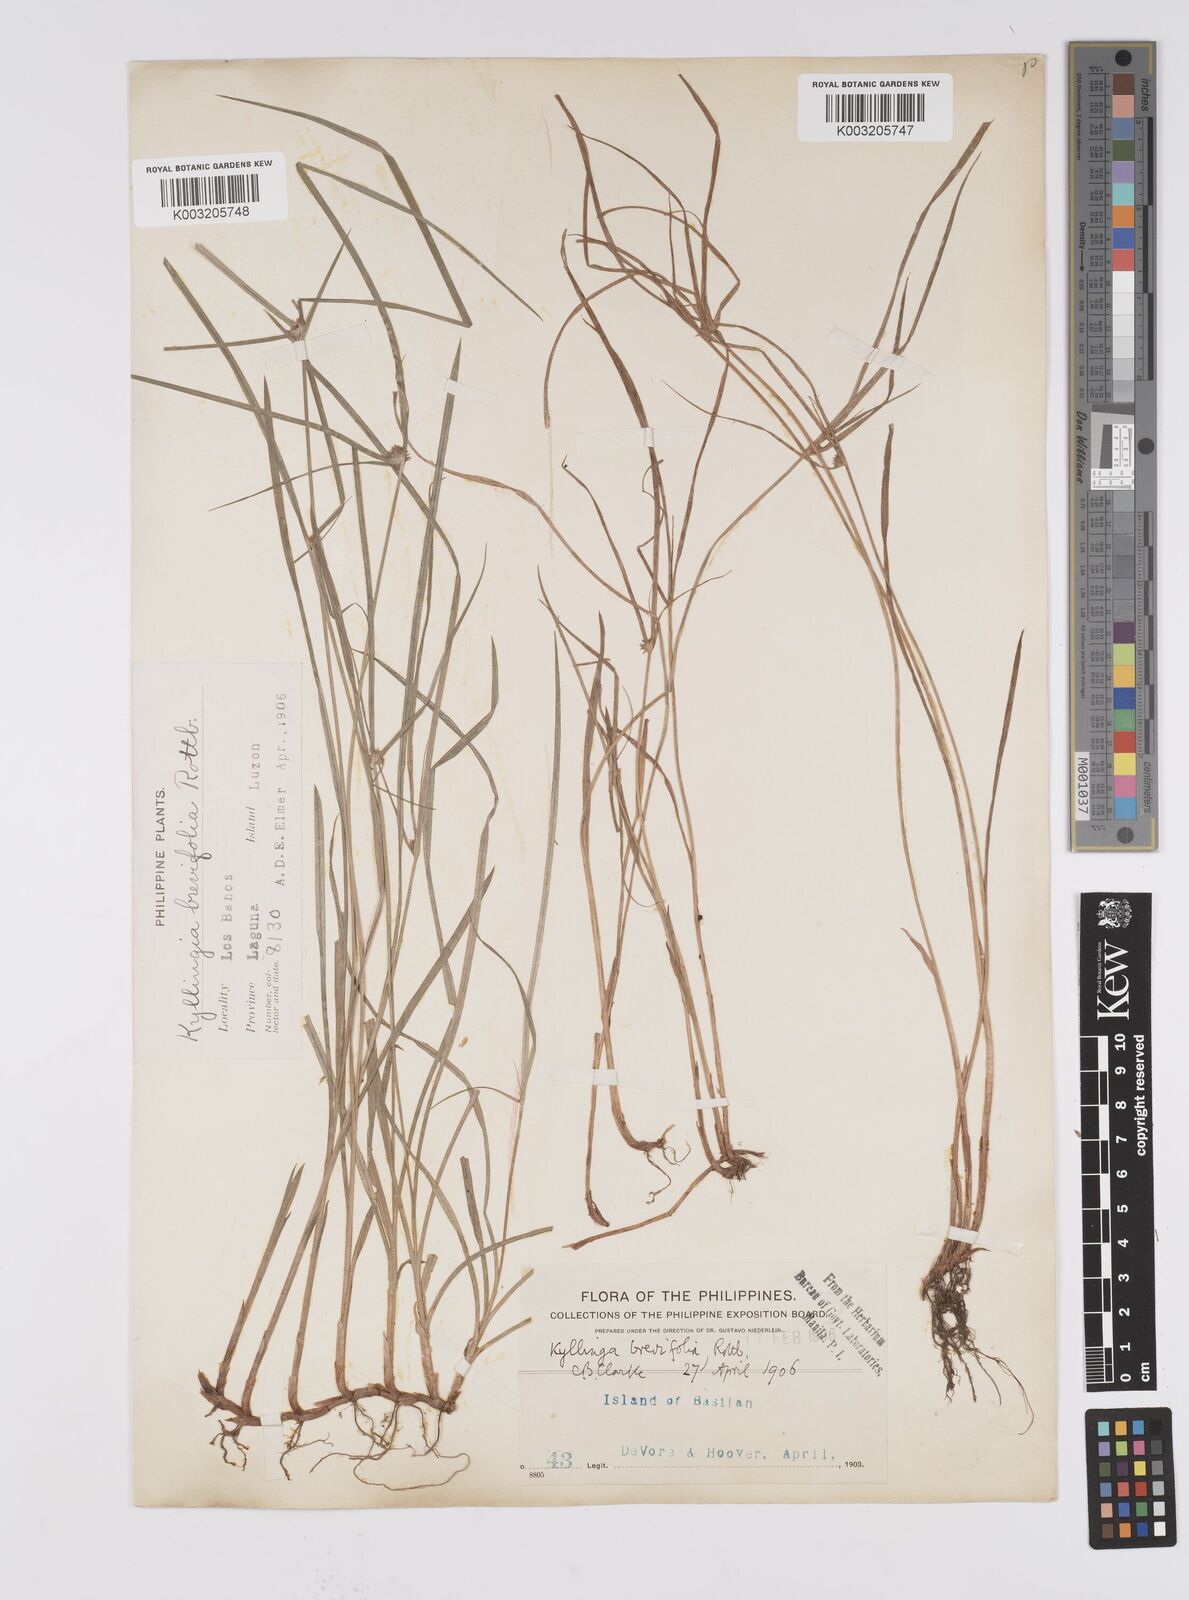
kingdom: Plantae
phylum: Tracheophyta
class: Liliopsida
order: Poales
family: Cyperaceae
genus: Cyperus
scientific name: Cyperus brevifolius
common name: Globe kyllinga
